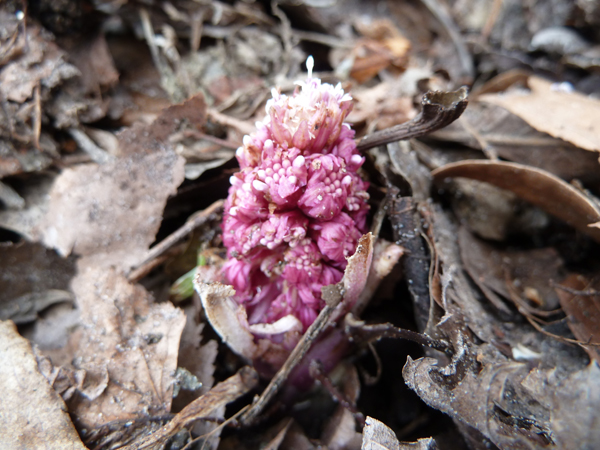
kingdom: Plantae
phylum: Tracheophyta
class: Magnoliopsida
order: Asterales
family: Asteraceae
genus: Petasites
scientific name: Petasites hybridus
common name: Butterbur
